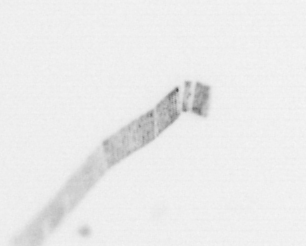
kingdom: Chromista
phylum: Ochrophyta
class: Bacillariophyceae
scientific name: Bacillariophyceae
